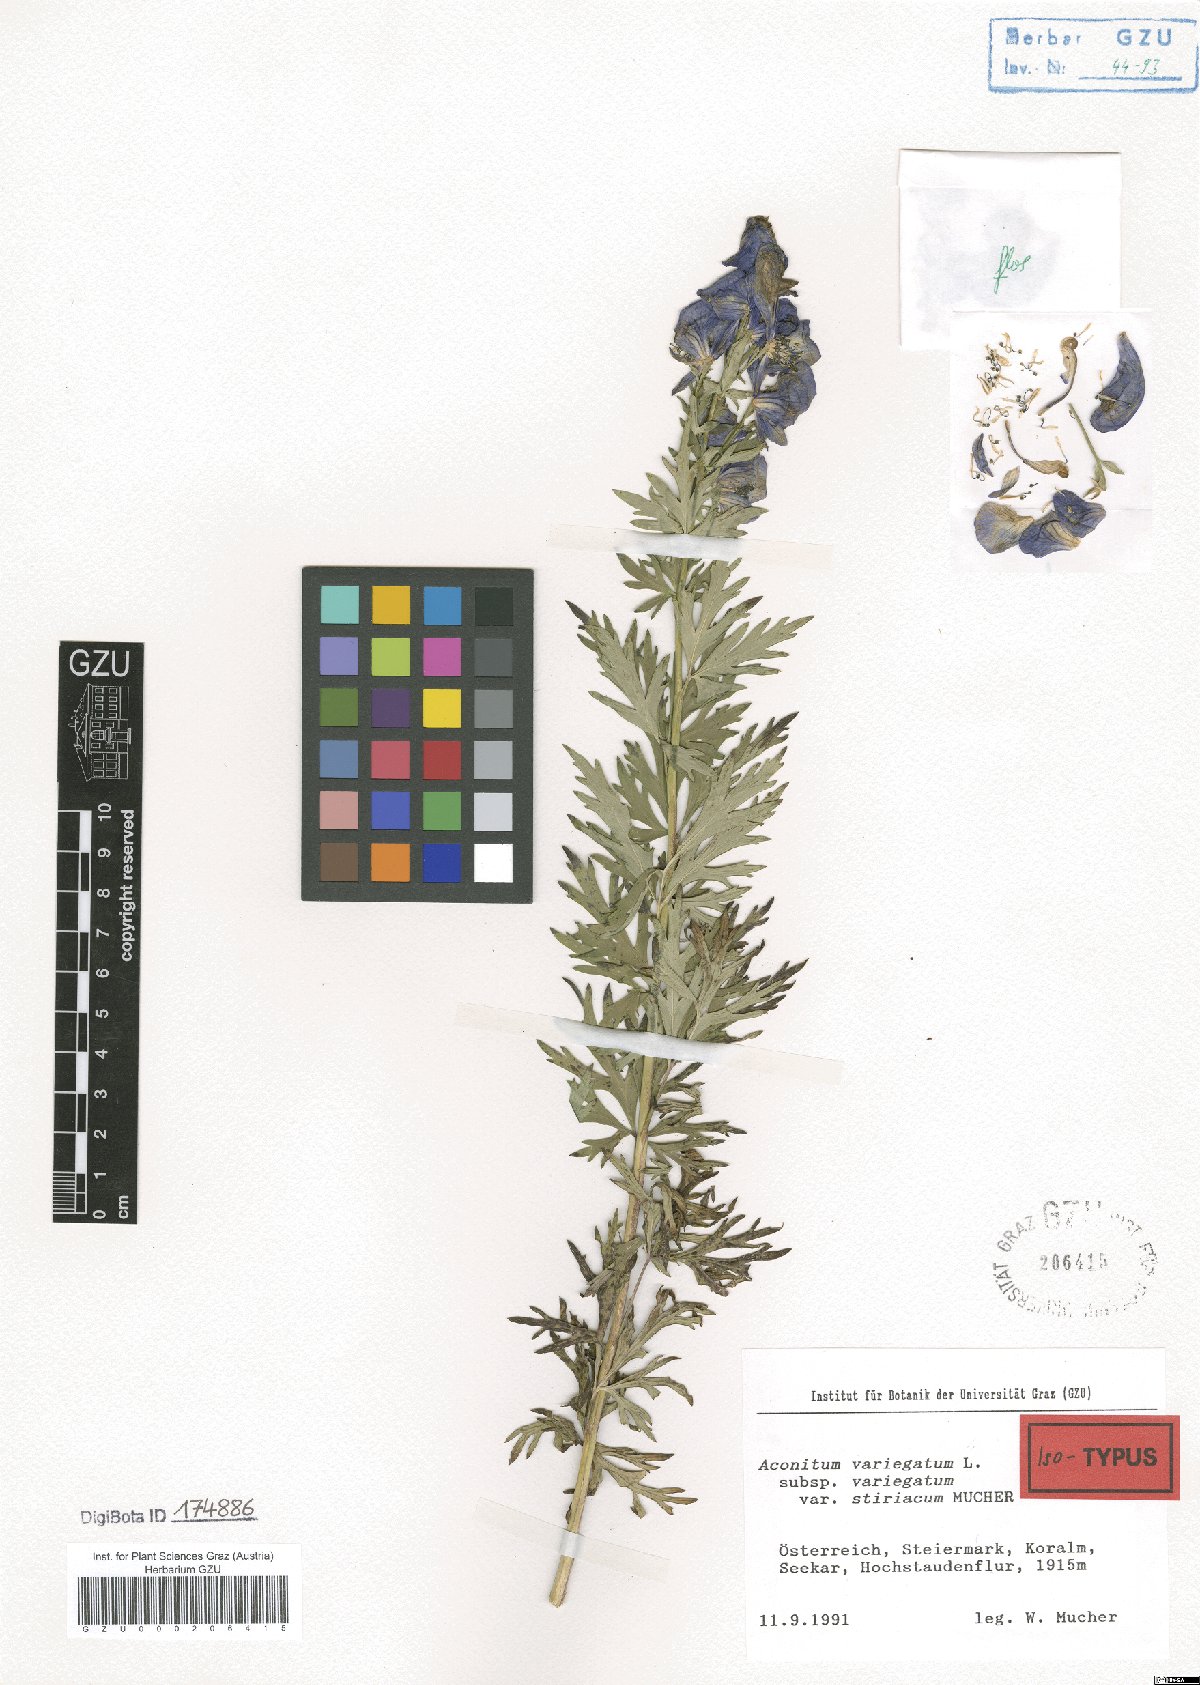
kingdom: Plantae
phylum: Tracheophyta
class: Magnoliopsida
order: Ranunculales
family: Ranunculaceae
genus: Aconitum
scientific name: Aconitum variegatum
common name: Manchurian monkshood
